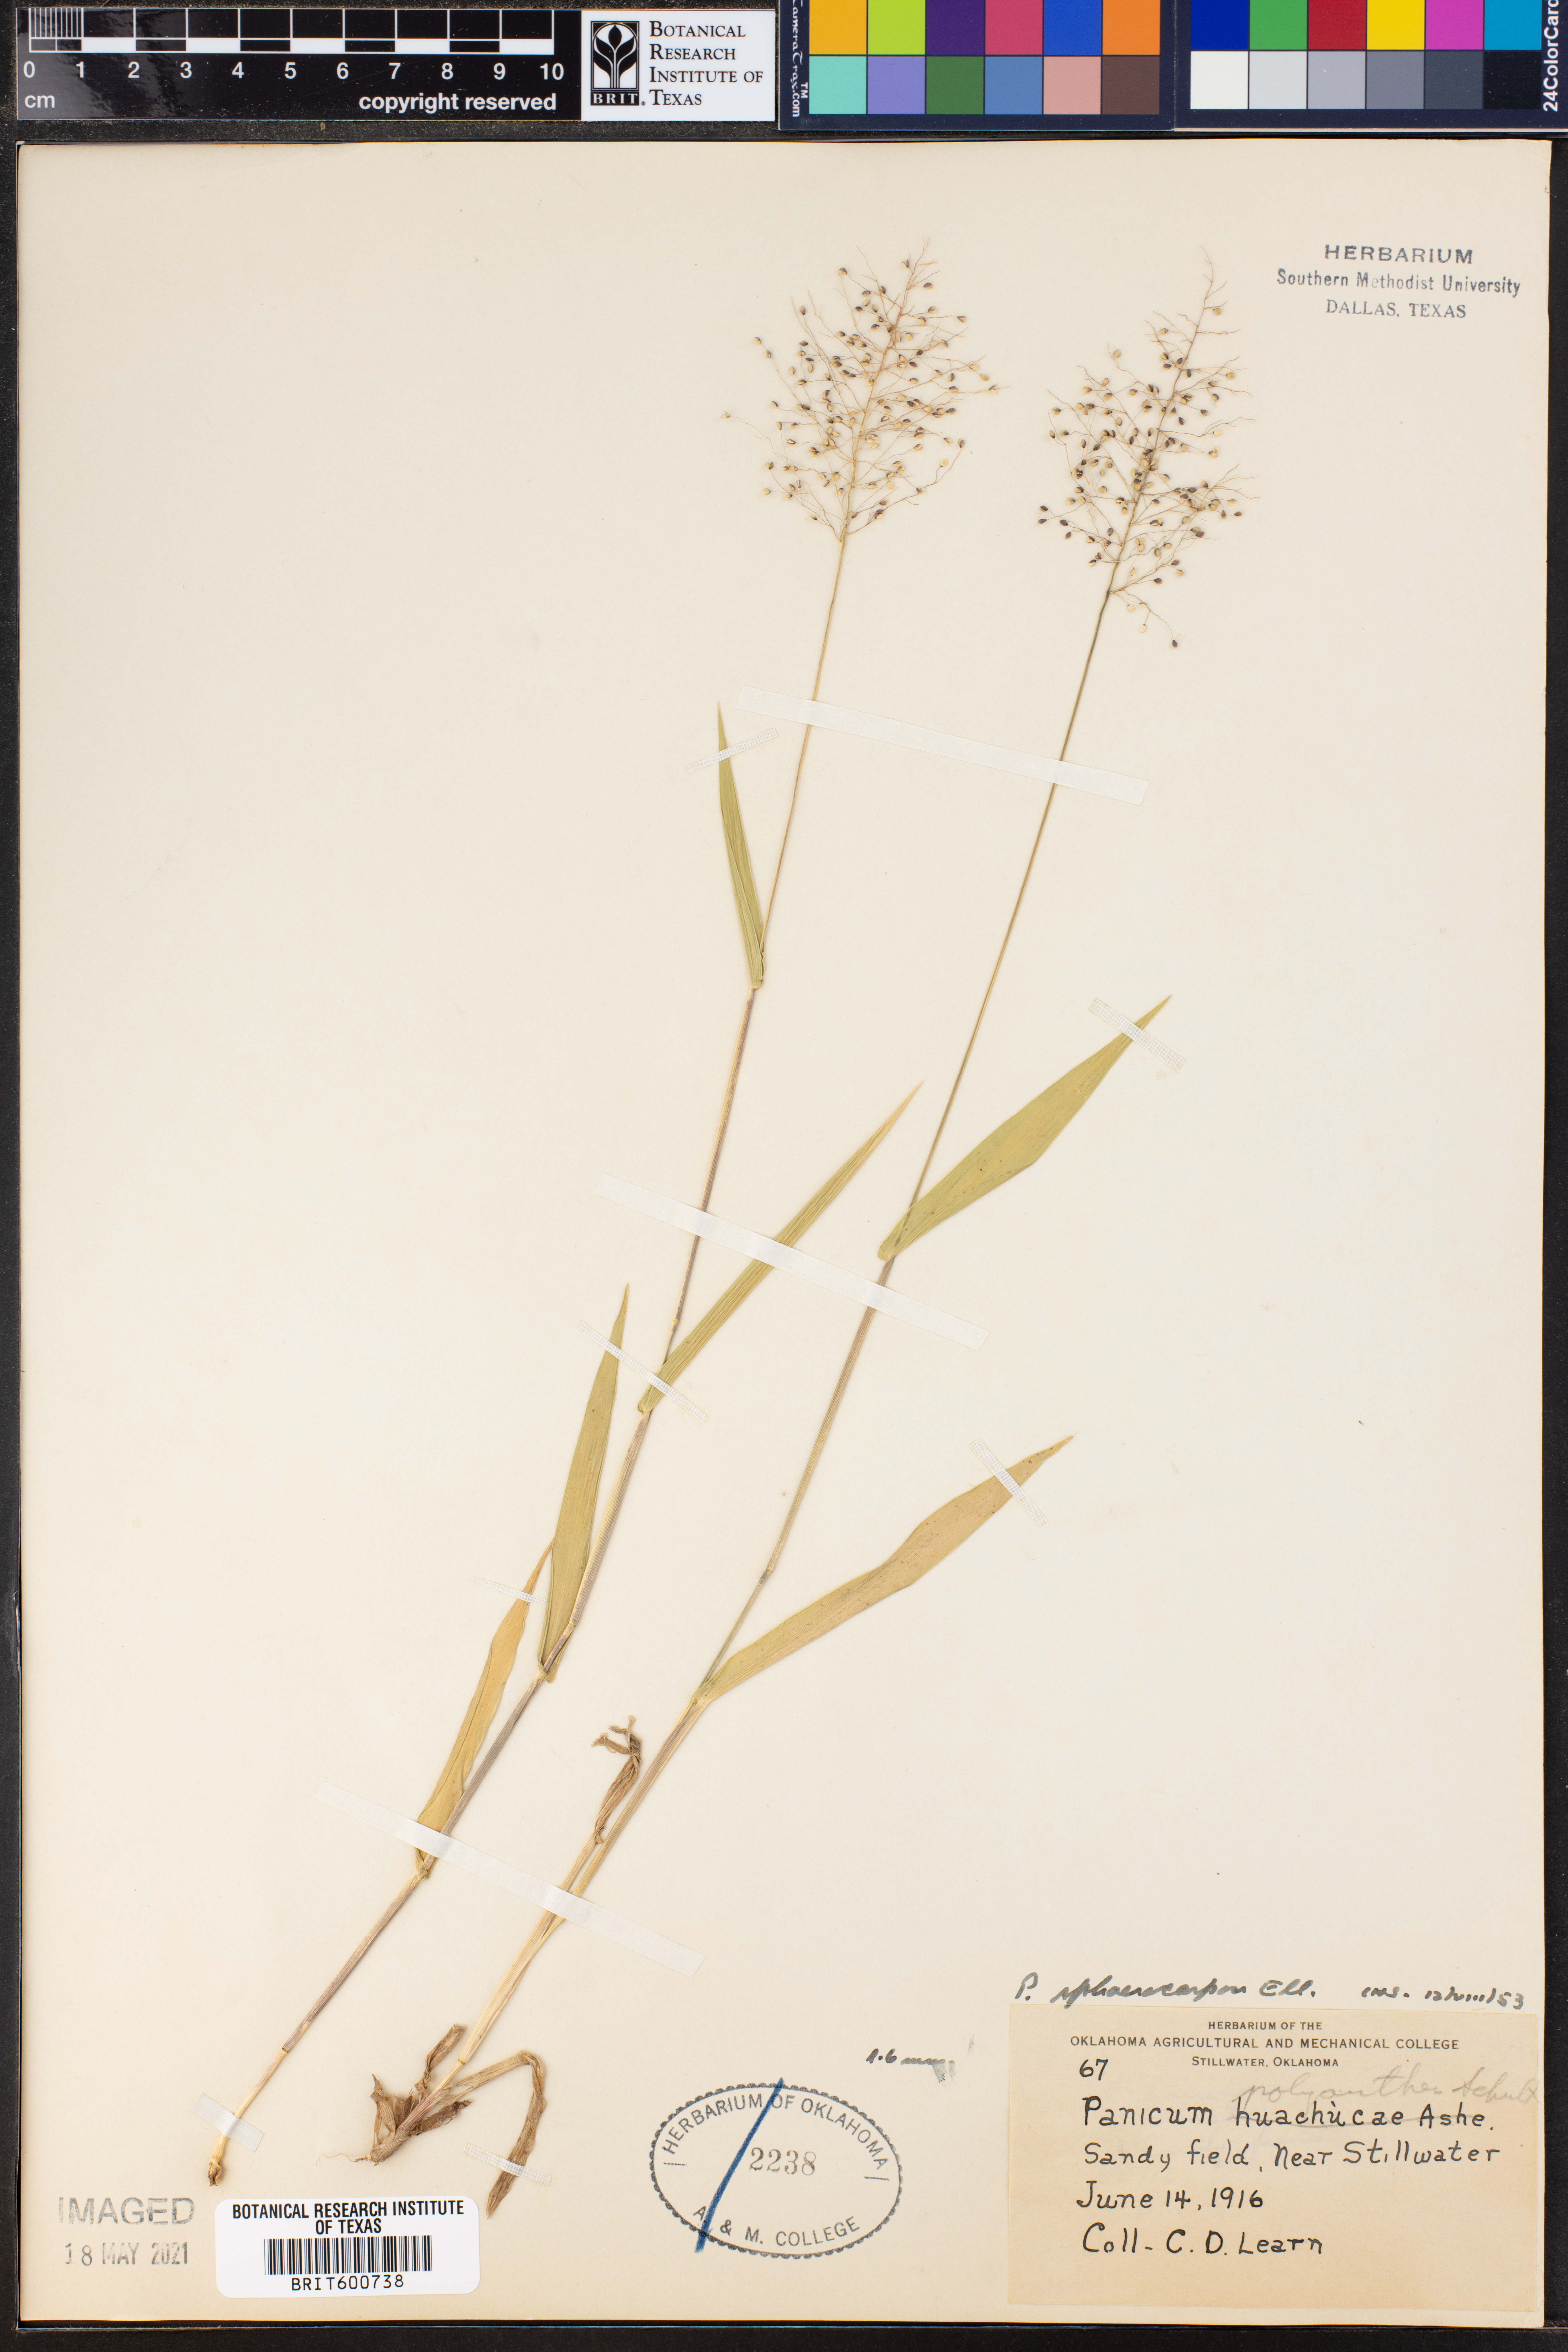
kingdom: Plantae
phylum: Tracheophyta
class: Liliopsida
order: Poales
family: Poaceae
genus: Dichanthelium
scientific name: Dichanthelium sphaerocarpon
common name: Round-fruited panicgrass
